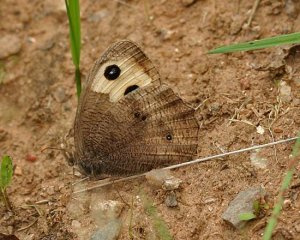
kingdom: Animalia
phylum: Arthropoda
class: Insecta
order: Lepidoptera
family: Nymphalidae
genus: Cercyonis
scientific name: Cercyonis pegala
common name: Common Wood-Nymph
